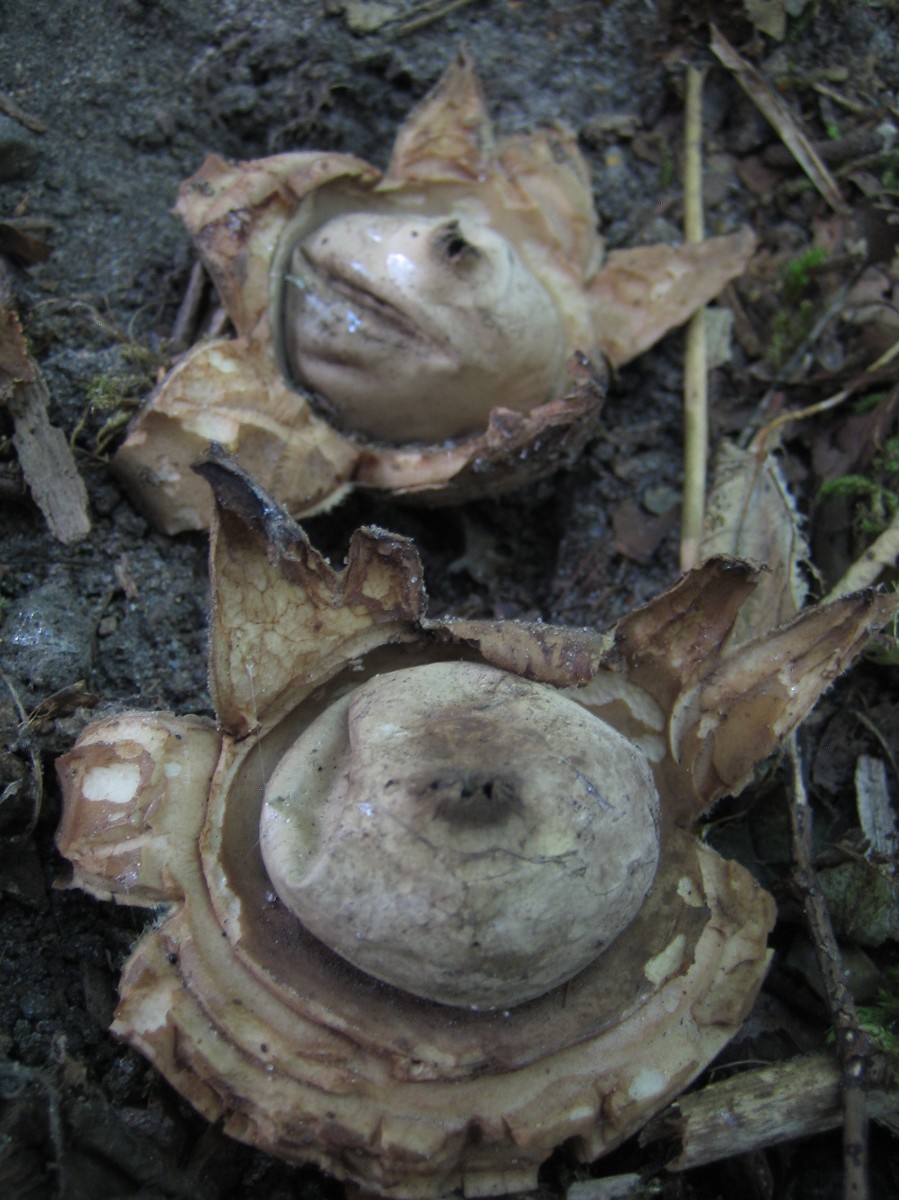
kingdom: Fungi
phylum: Basidiomycota
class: Agaricomycetes
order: Geastrales
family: Geastraceae
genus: Geastrum
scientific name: Geastrum michelianum
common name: kødet stjernebold
